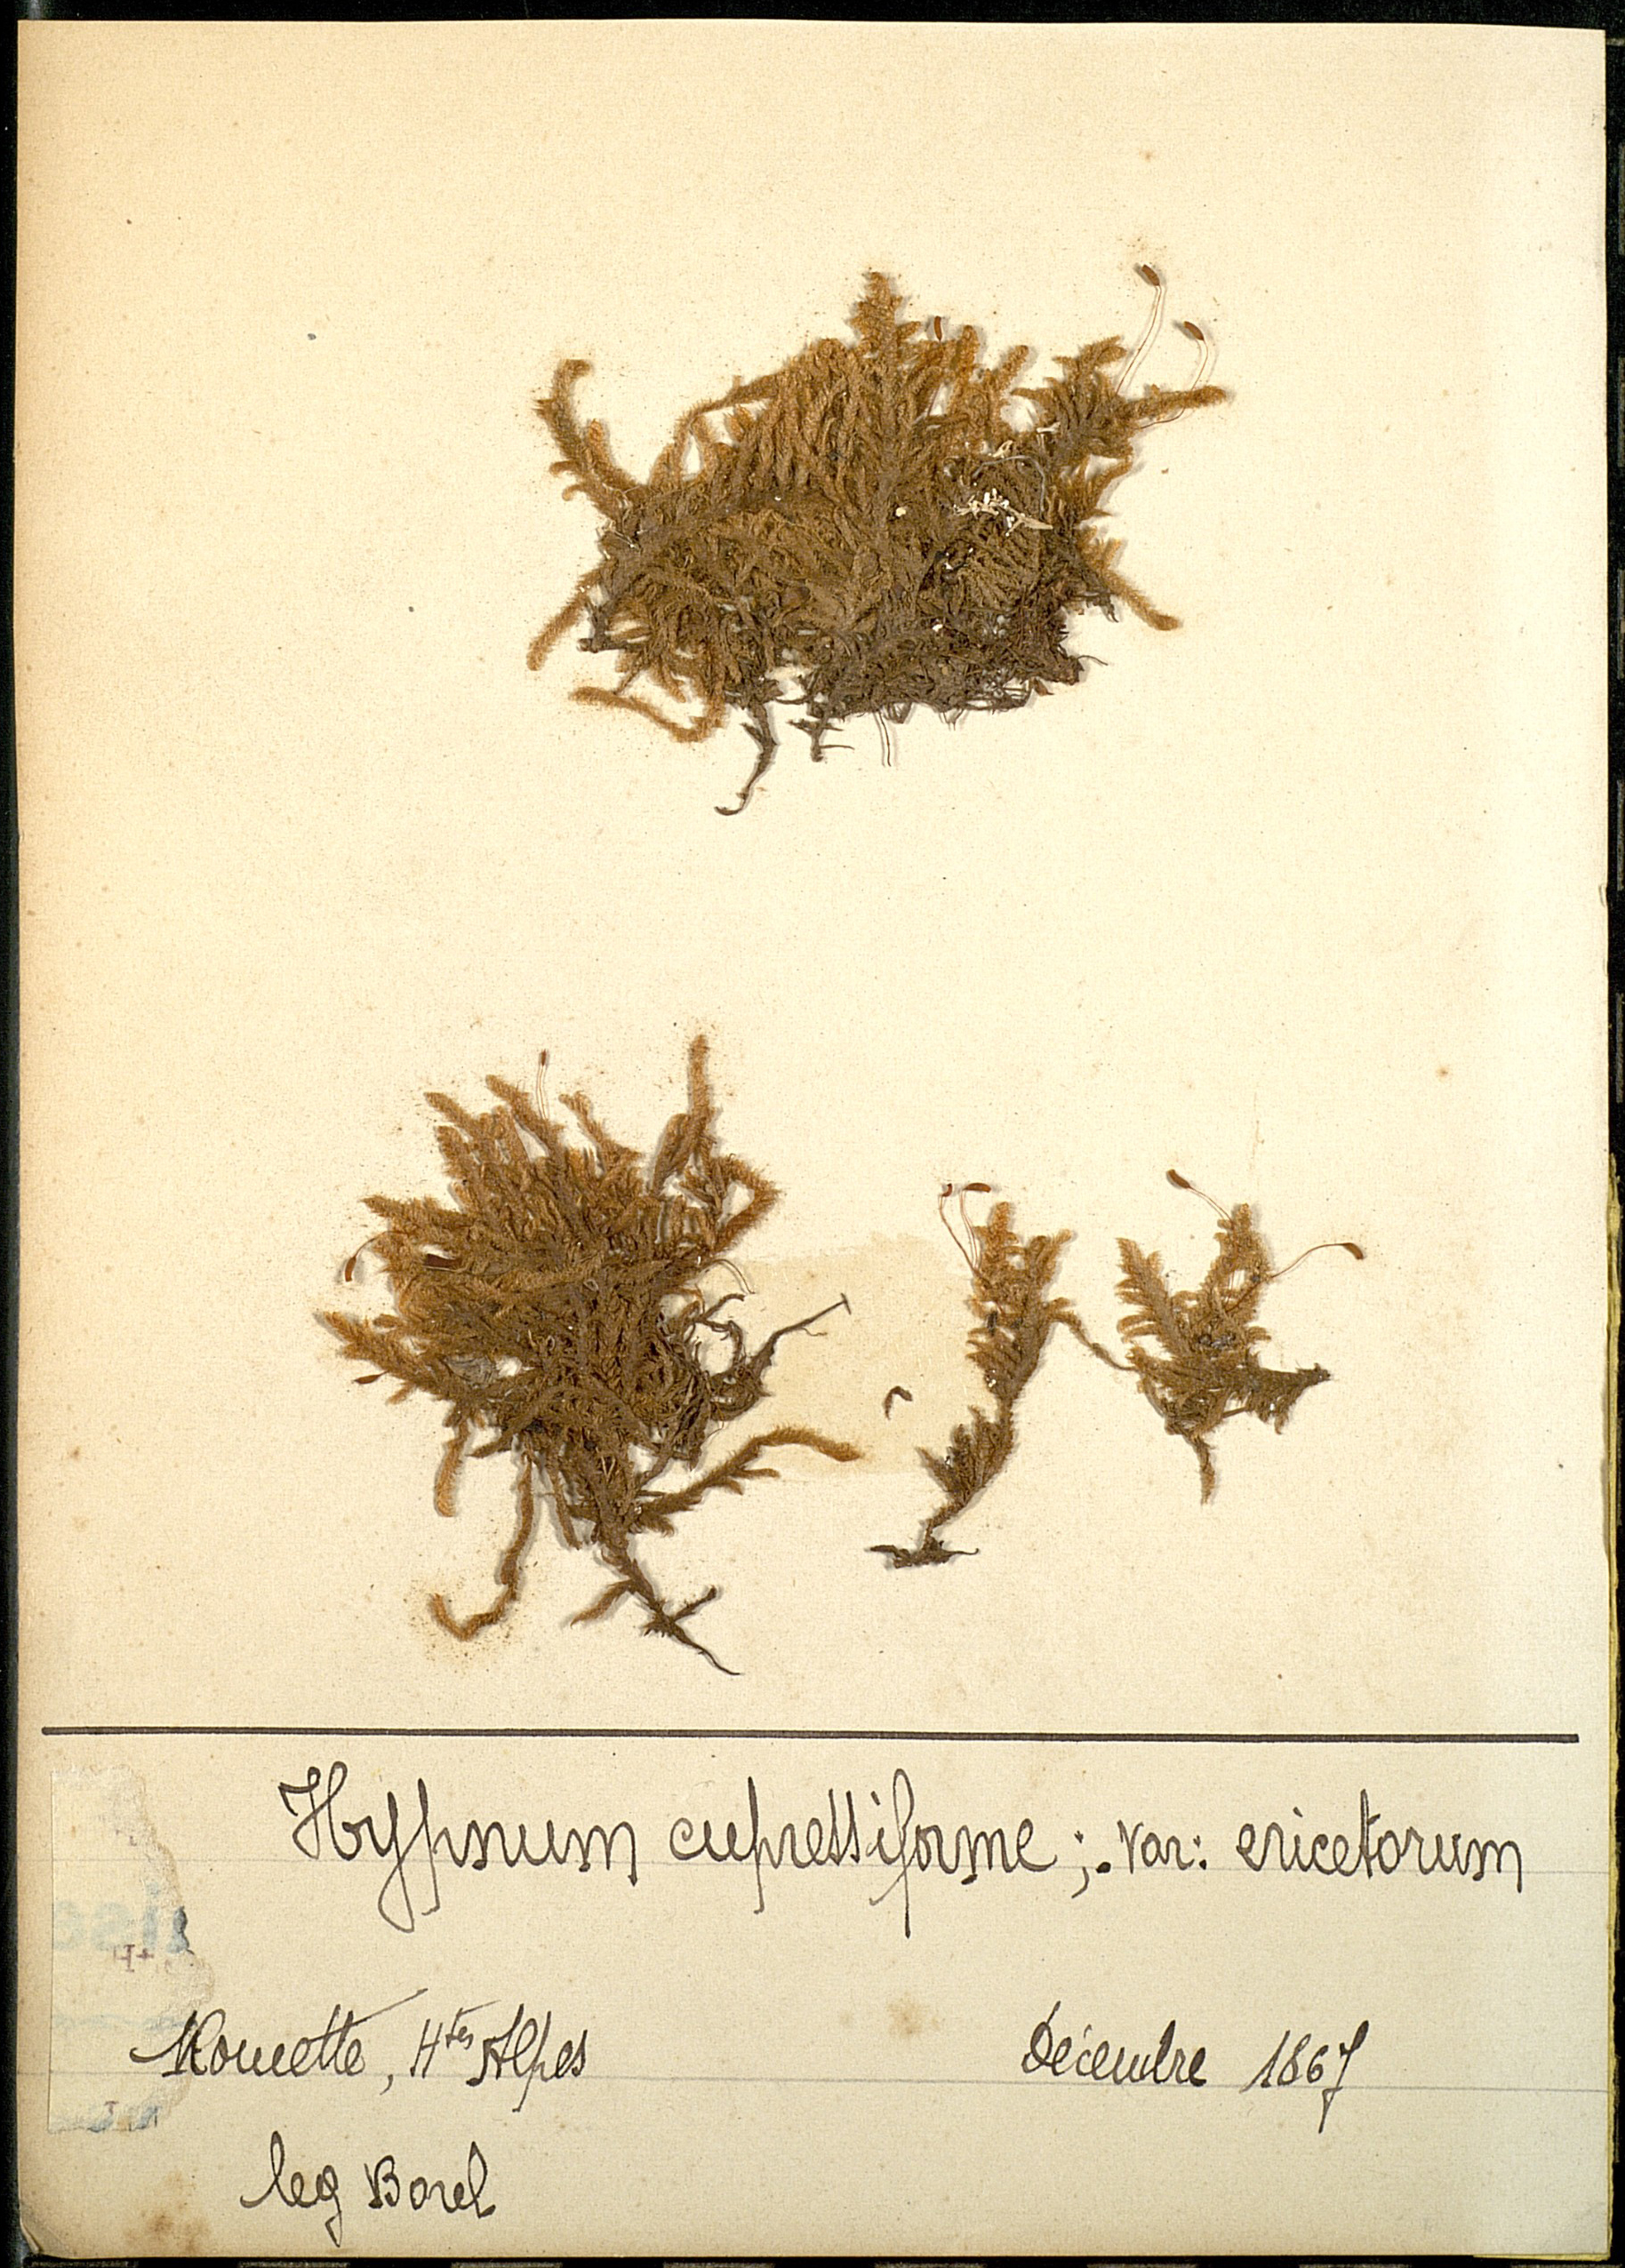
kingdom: Plantae
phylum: Bryophyta
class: Bryopsida
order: Hypnales
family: Hypnaceae
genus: Hypnum
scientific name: Hypnum cupressiforme
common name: Cypress-leaved plait-moss
